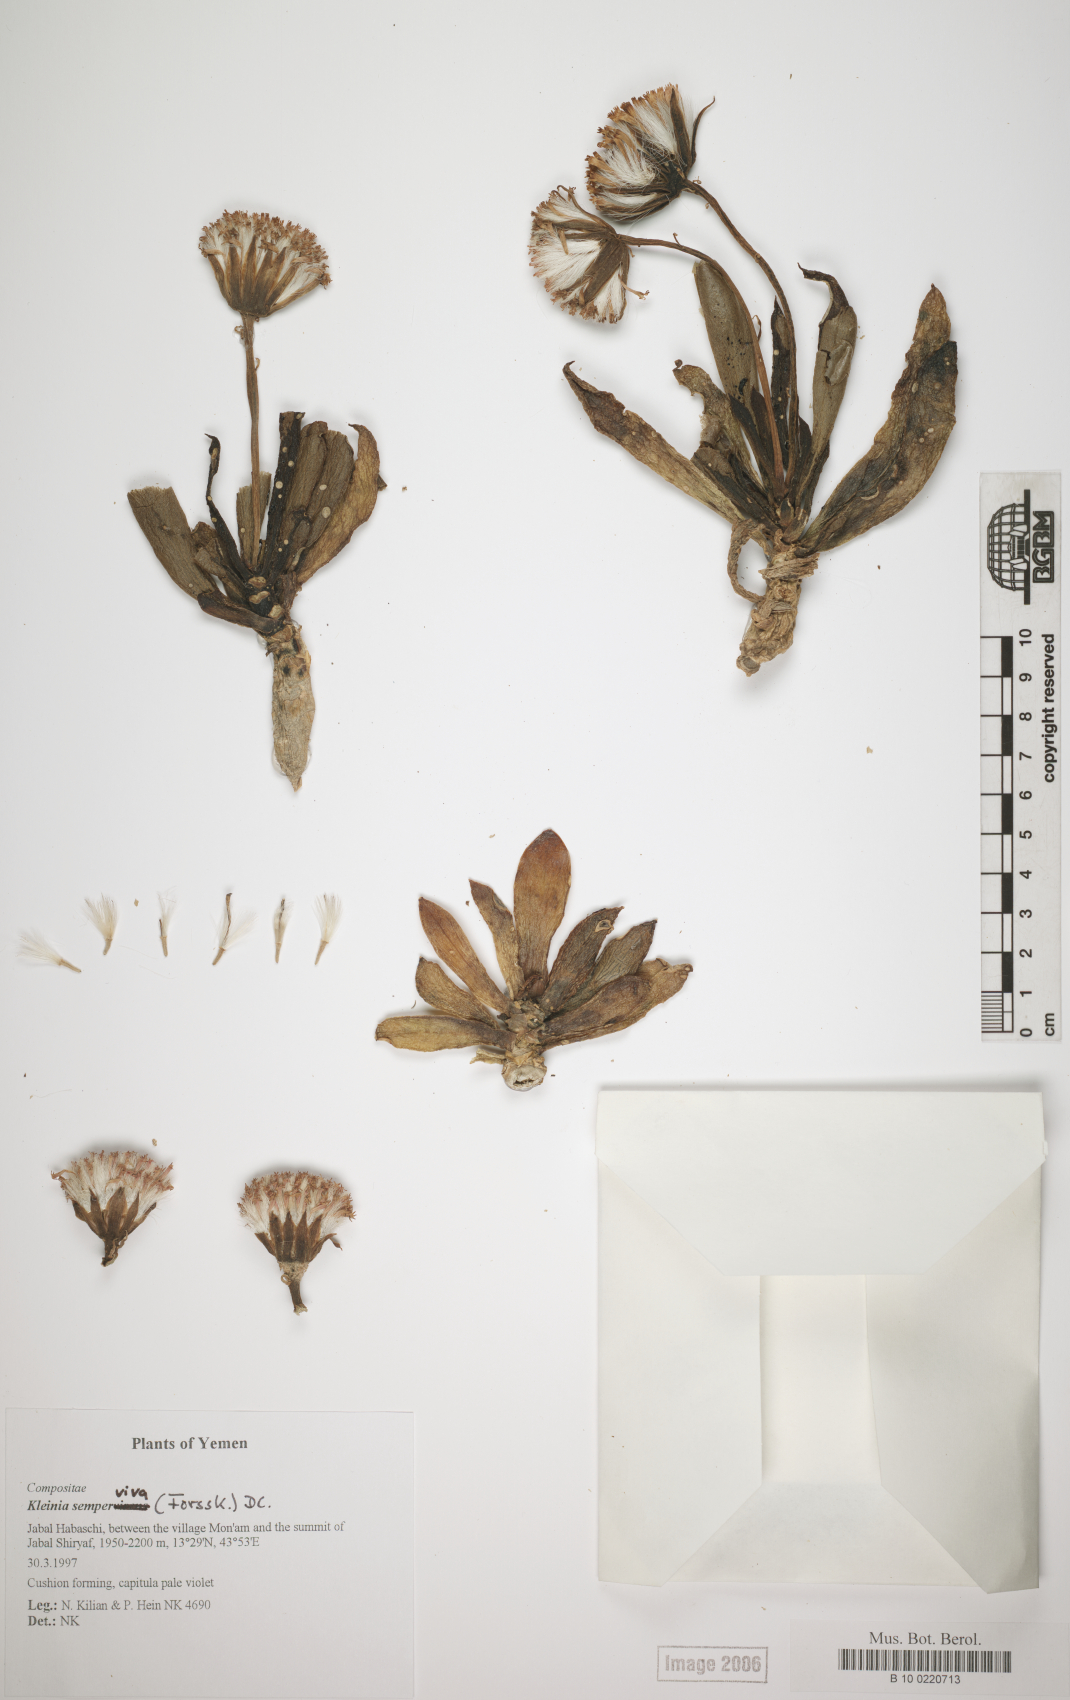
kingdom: Plantae
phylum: Tracheophyta
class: Magnoliopsida
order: Asterales
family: Asteraceae
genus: Kleinia
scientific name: Kleinia semperviva
